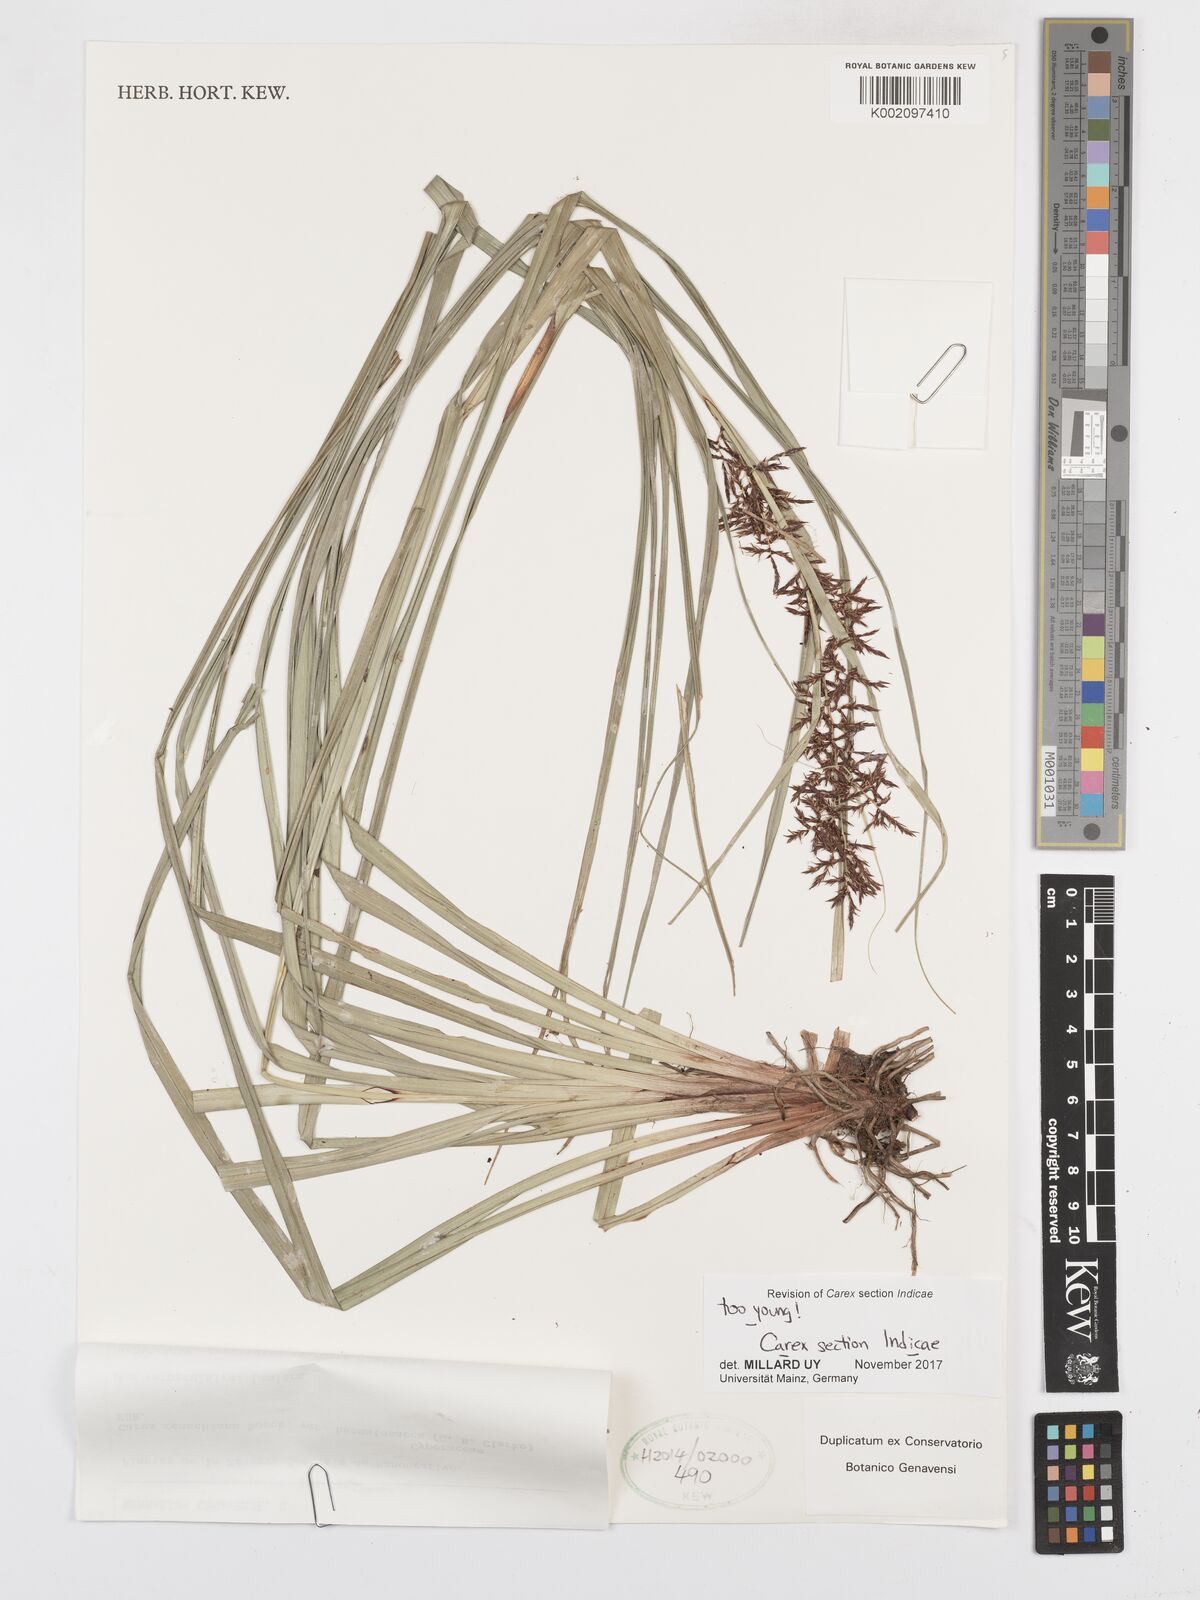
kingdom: Plantae
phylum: Tracheophyta
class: Liliopsida
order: Poales
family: Cyperaceae
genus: Carex
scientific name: Carex
